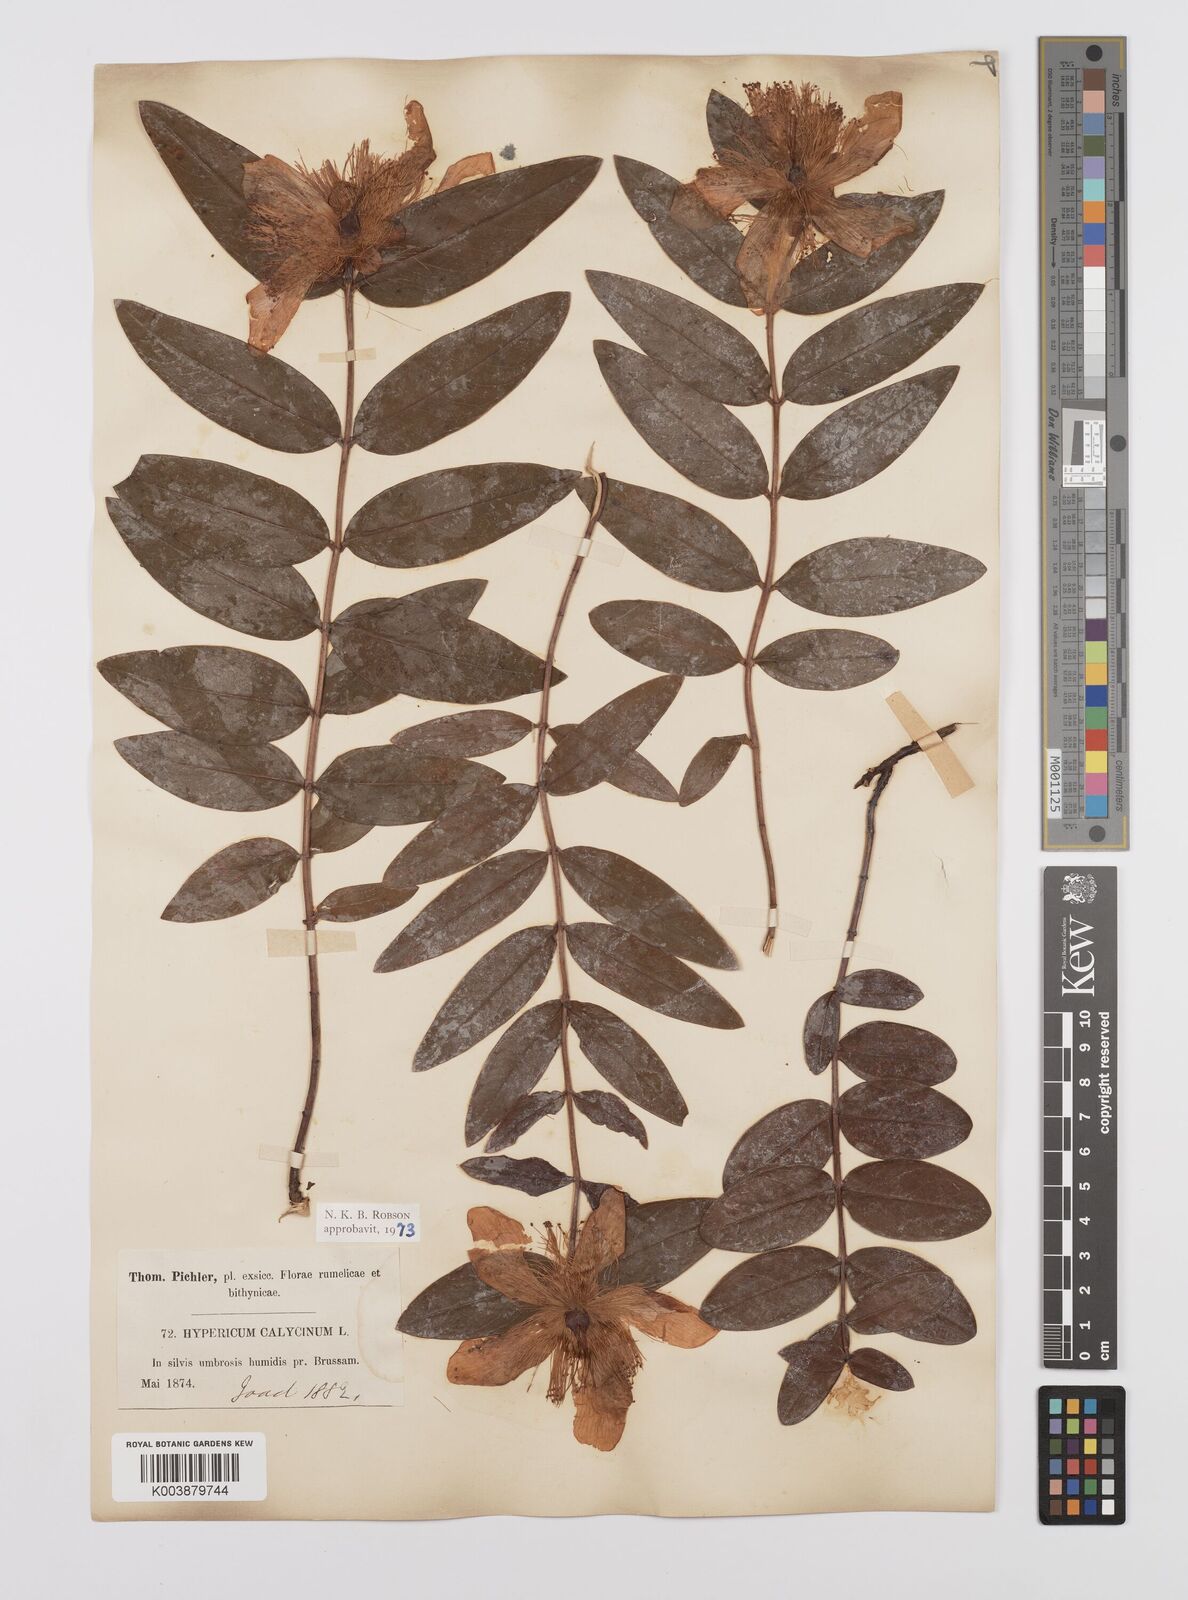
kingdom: Plantae
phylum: Tracheophyta
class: Magnoliopsida
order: Malpighiales
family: Hypericaceae
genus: Hypericum
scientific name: Hypericum calycinum
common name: Rose-of-sharon
